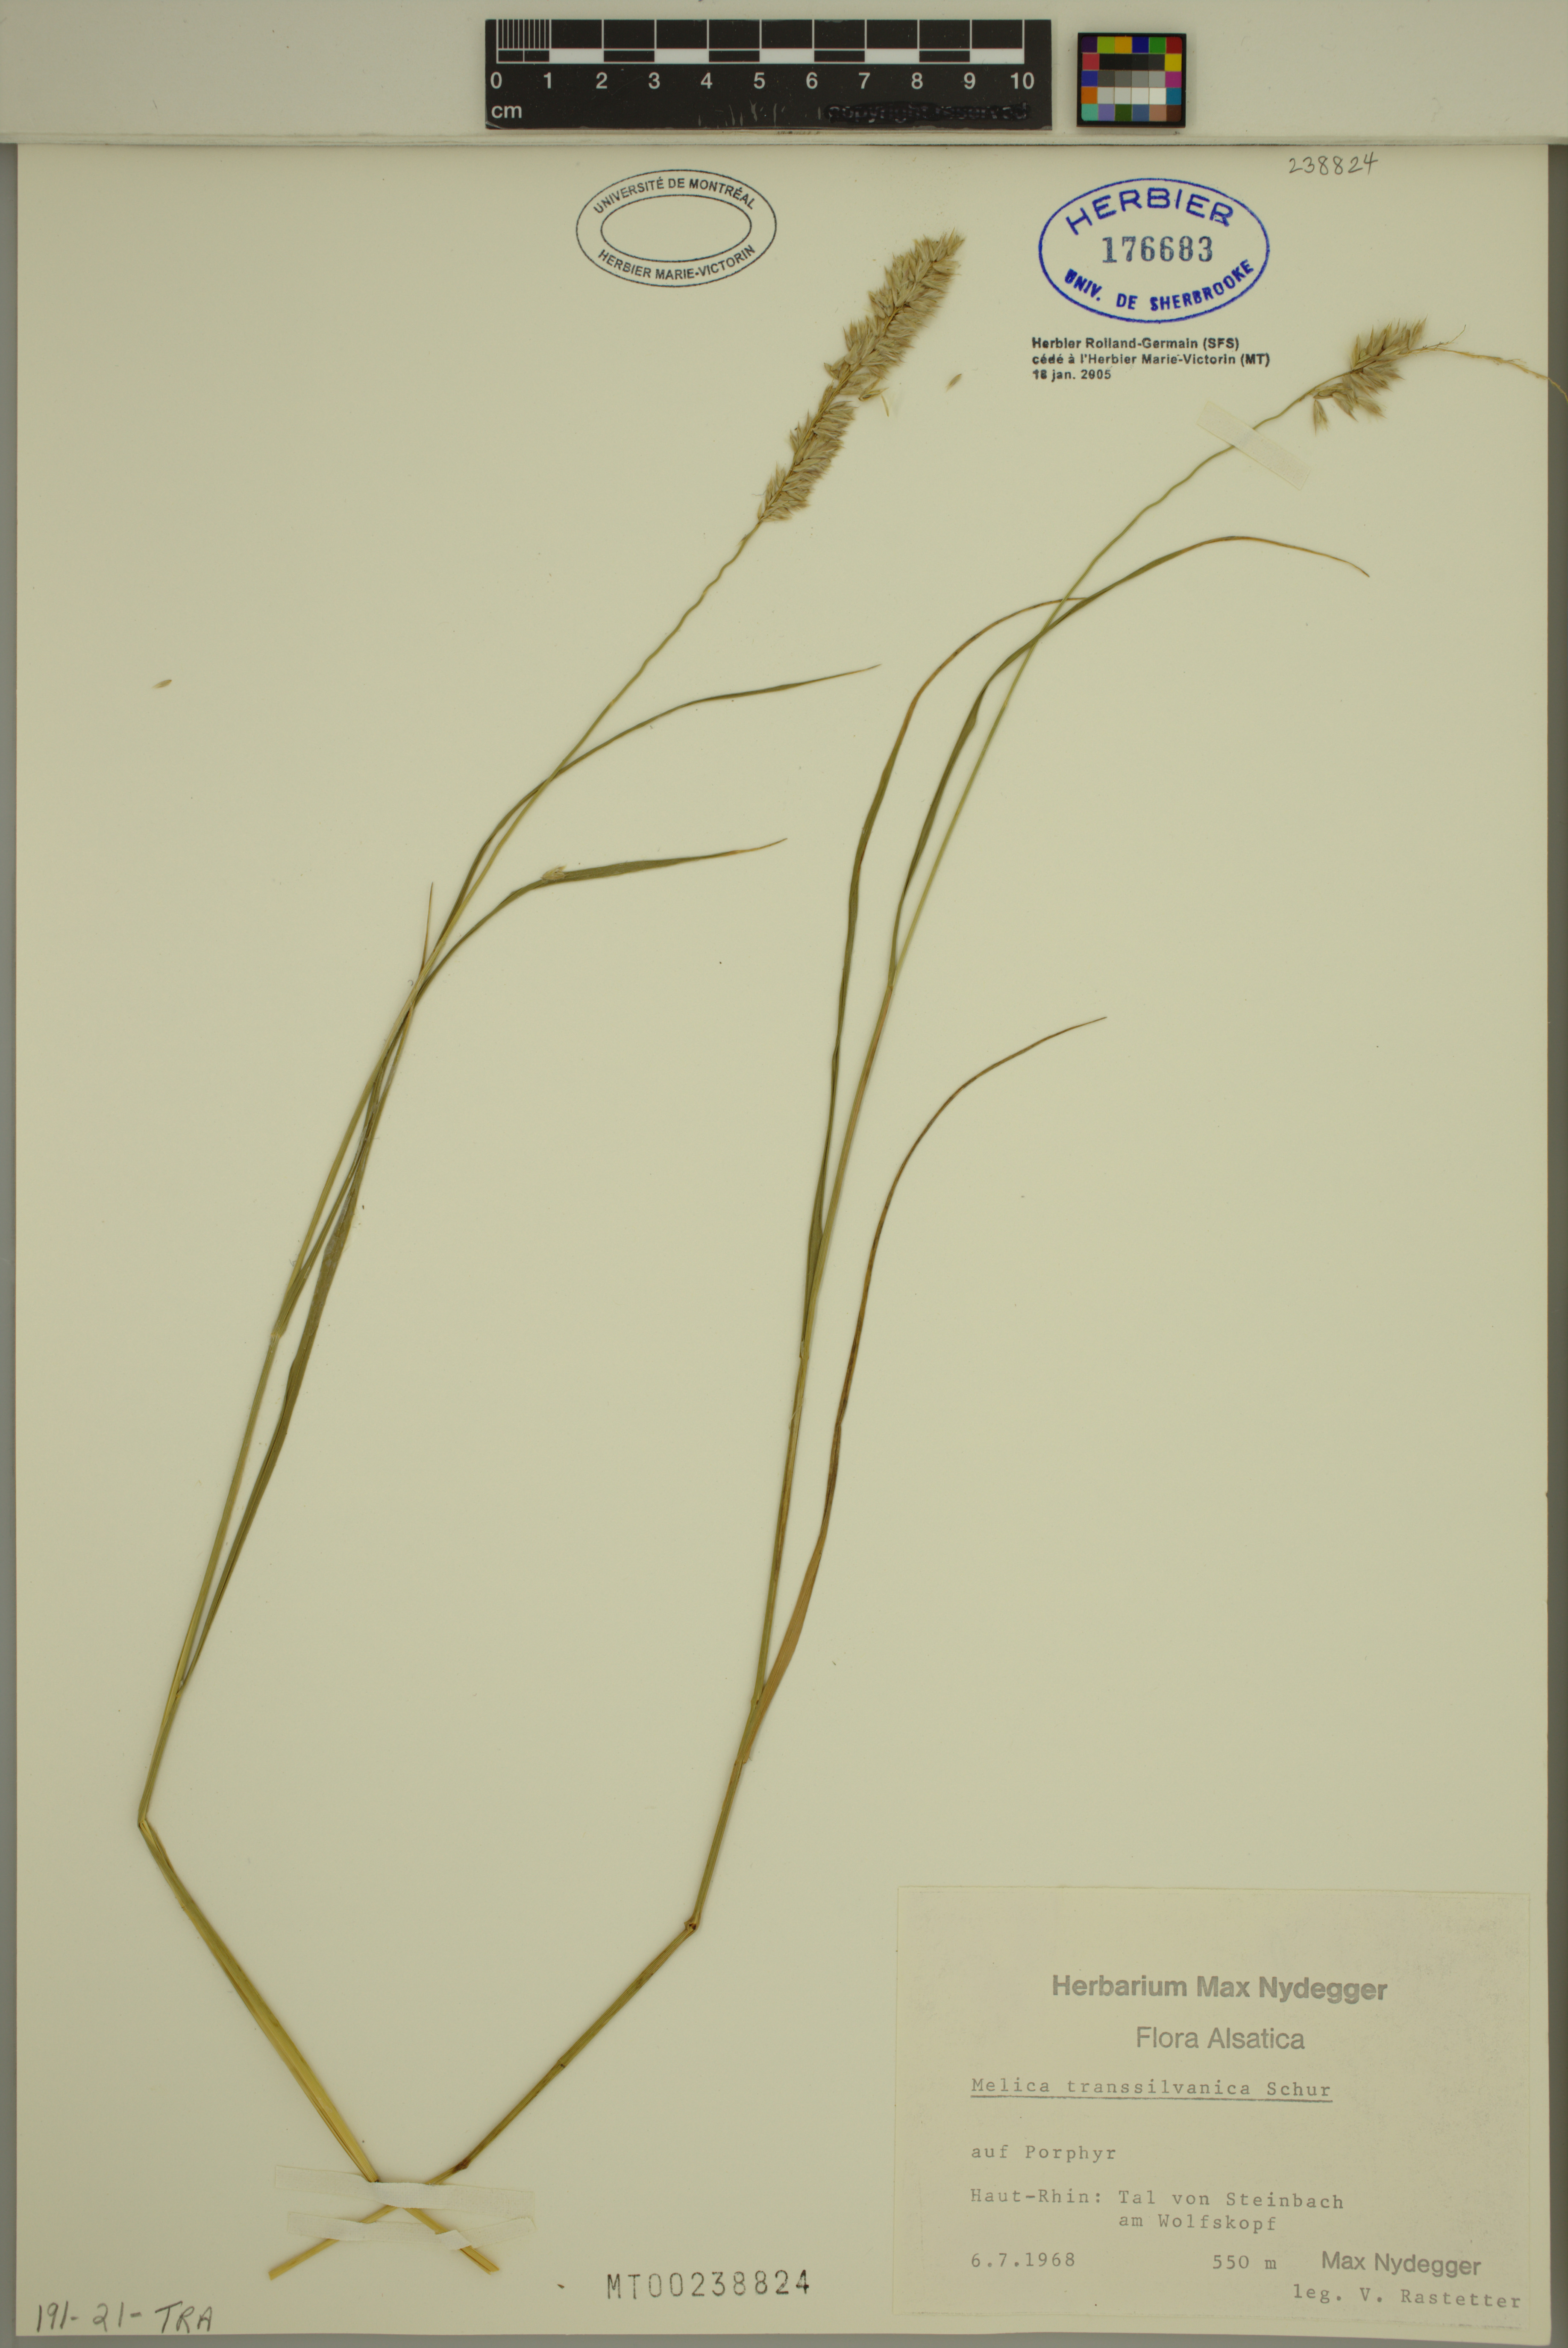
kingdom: Plantae
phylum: Tracheophyta
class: Liliopsida
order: Poales
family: Poaceae
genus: Melica
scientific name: Melica transsilvanica
